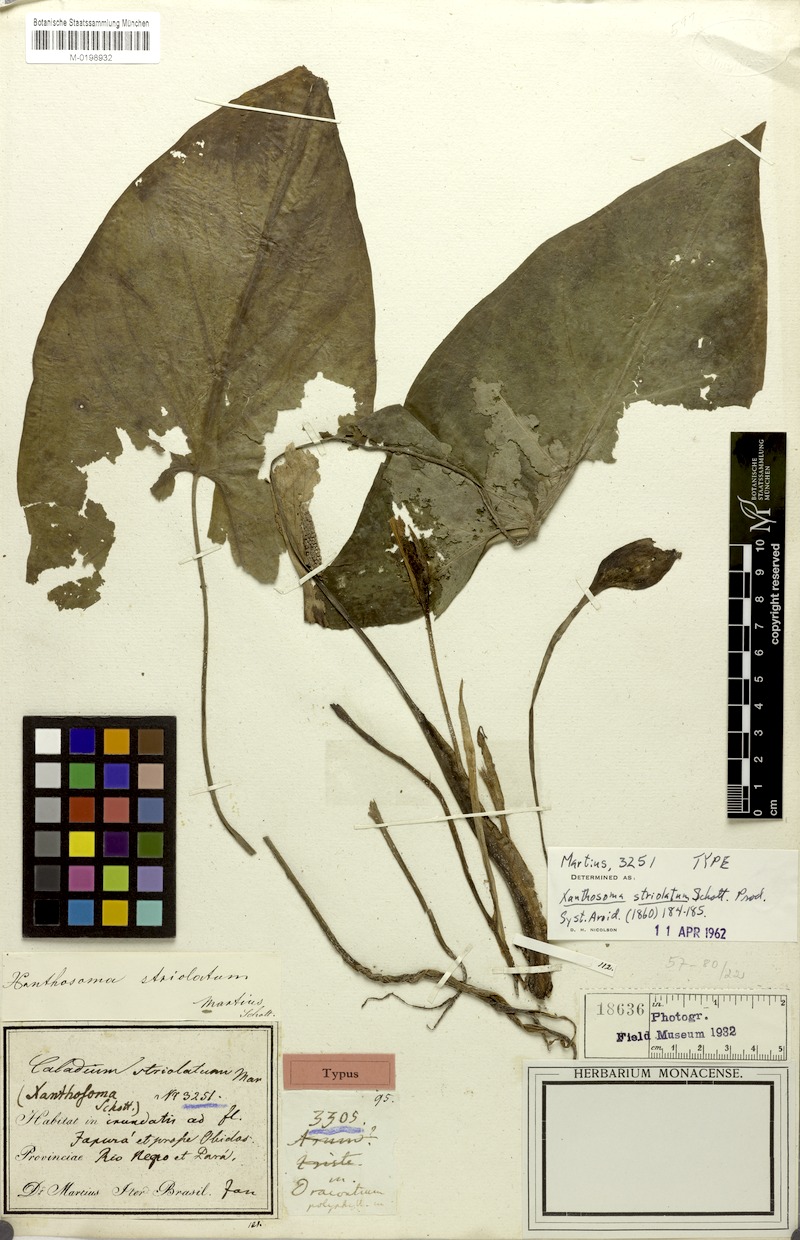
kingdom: Plantae
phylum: Tracheophyta
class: Liliopsida
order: Alismatales
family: Araceae
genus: Xanthosoma
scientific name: Xanthosoma striolatum
